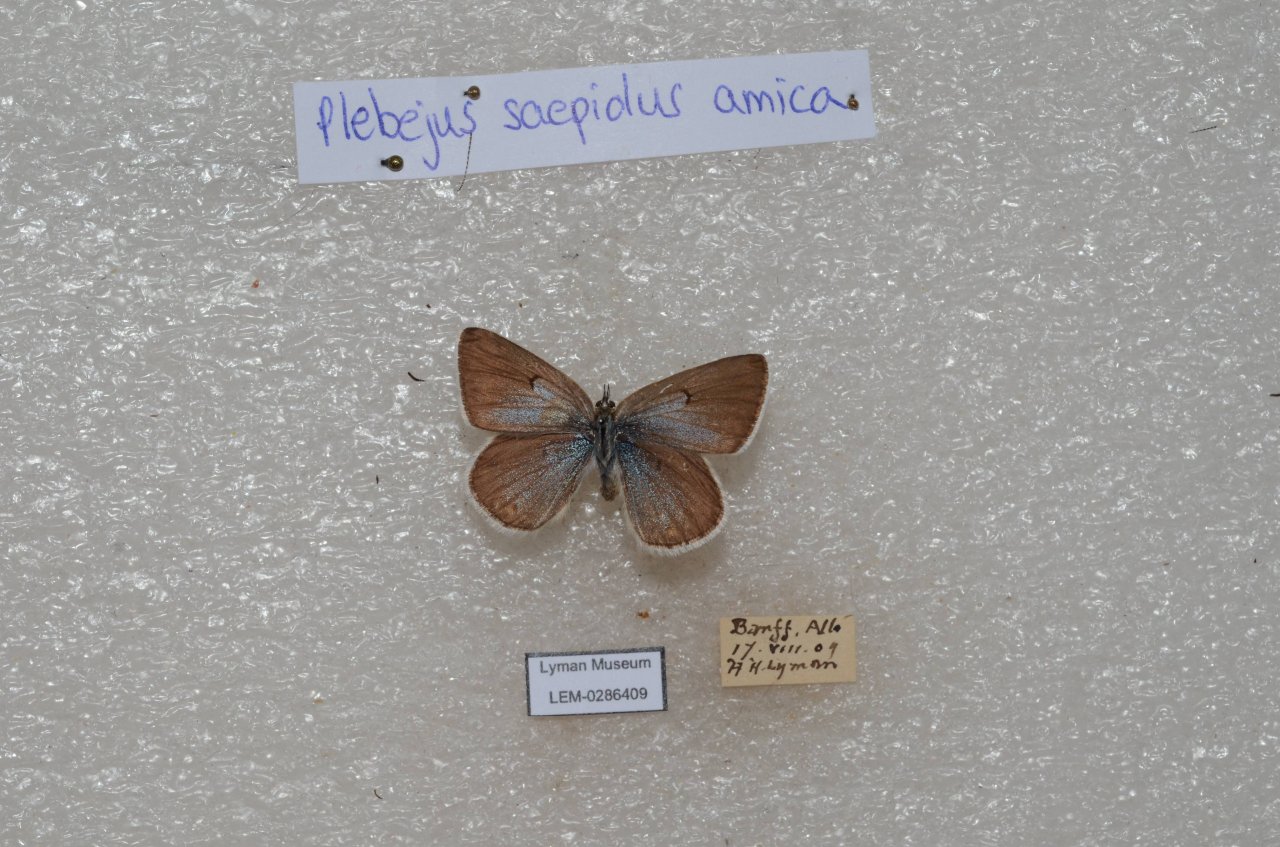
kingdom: Animalia
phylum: Arthropoda
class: Insecta
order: Lepidoptera
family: Lycaenidae
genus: Plebejus
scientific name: Plebejus saepiolus
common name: Greenish Blue
